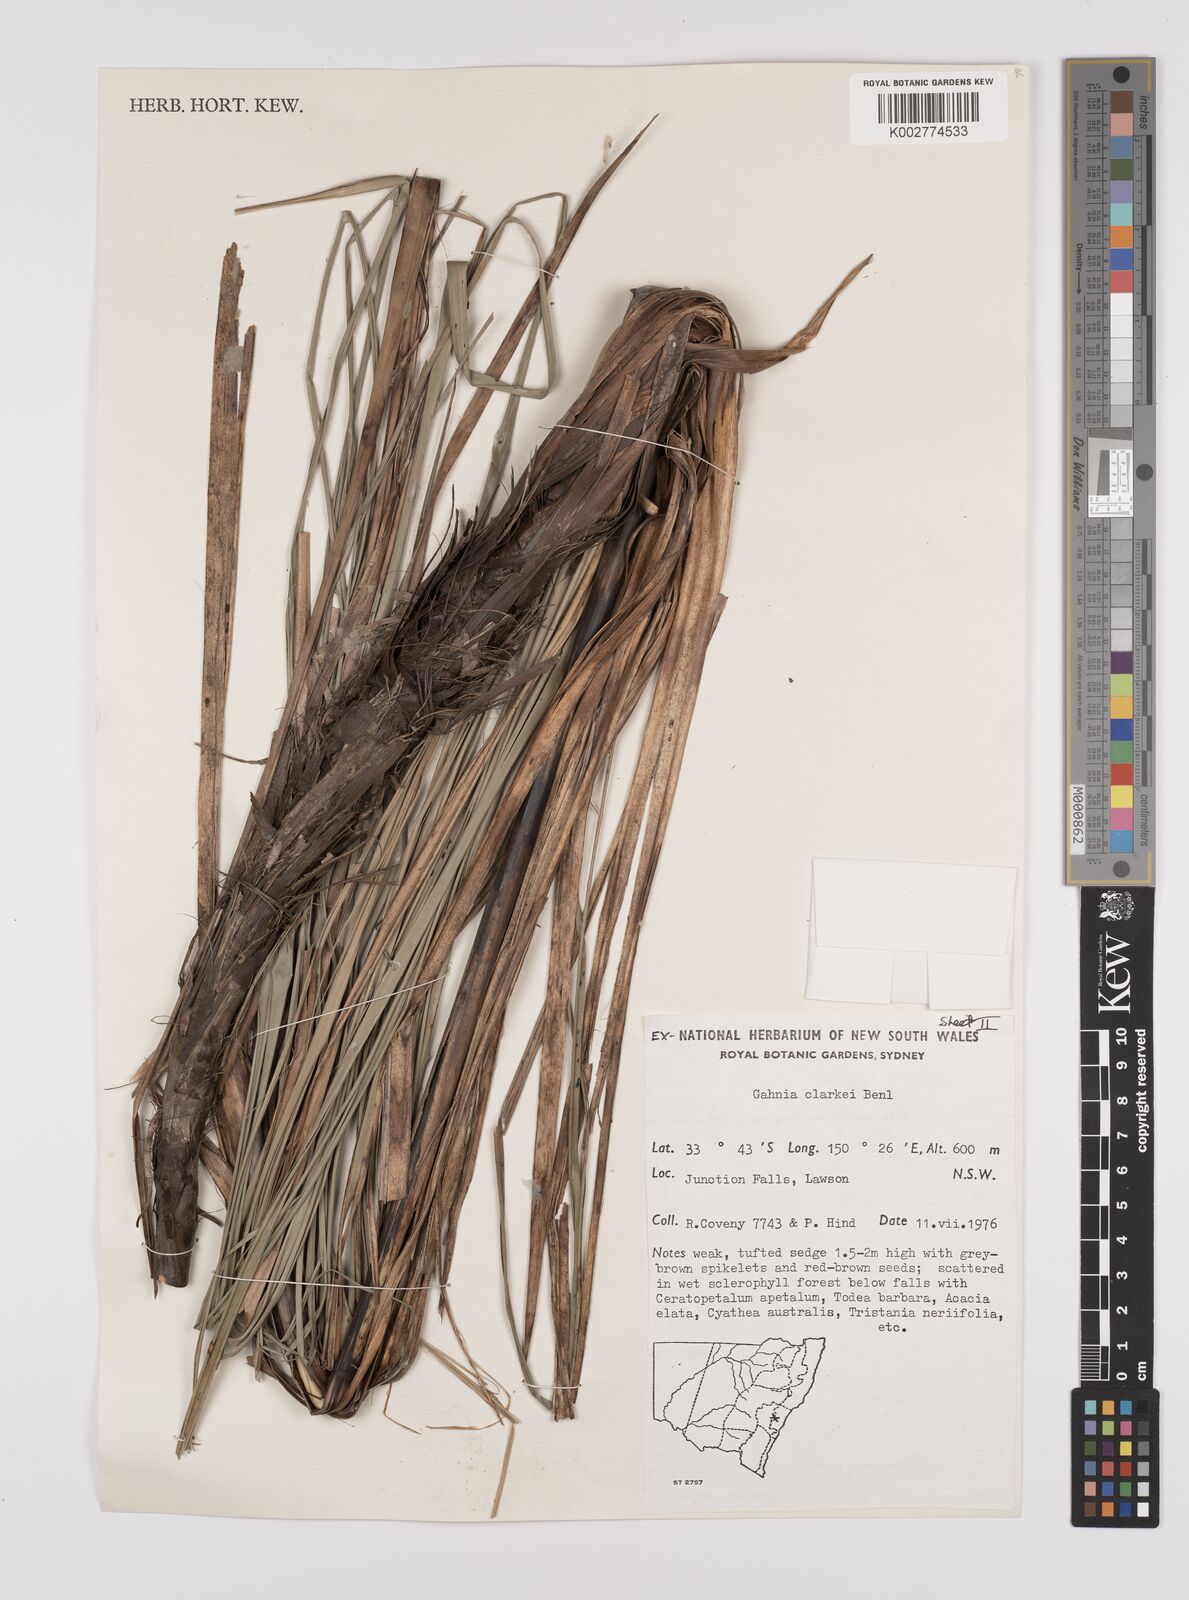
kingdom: Plantae
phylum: Tracheophyta
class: Liliopsida
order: Poales
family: Cyperaceae
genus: Gahnia
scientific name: Gahnia clarkei
